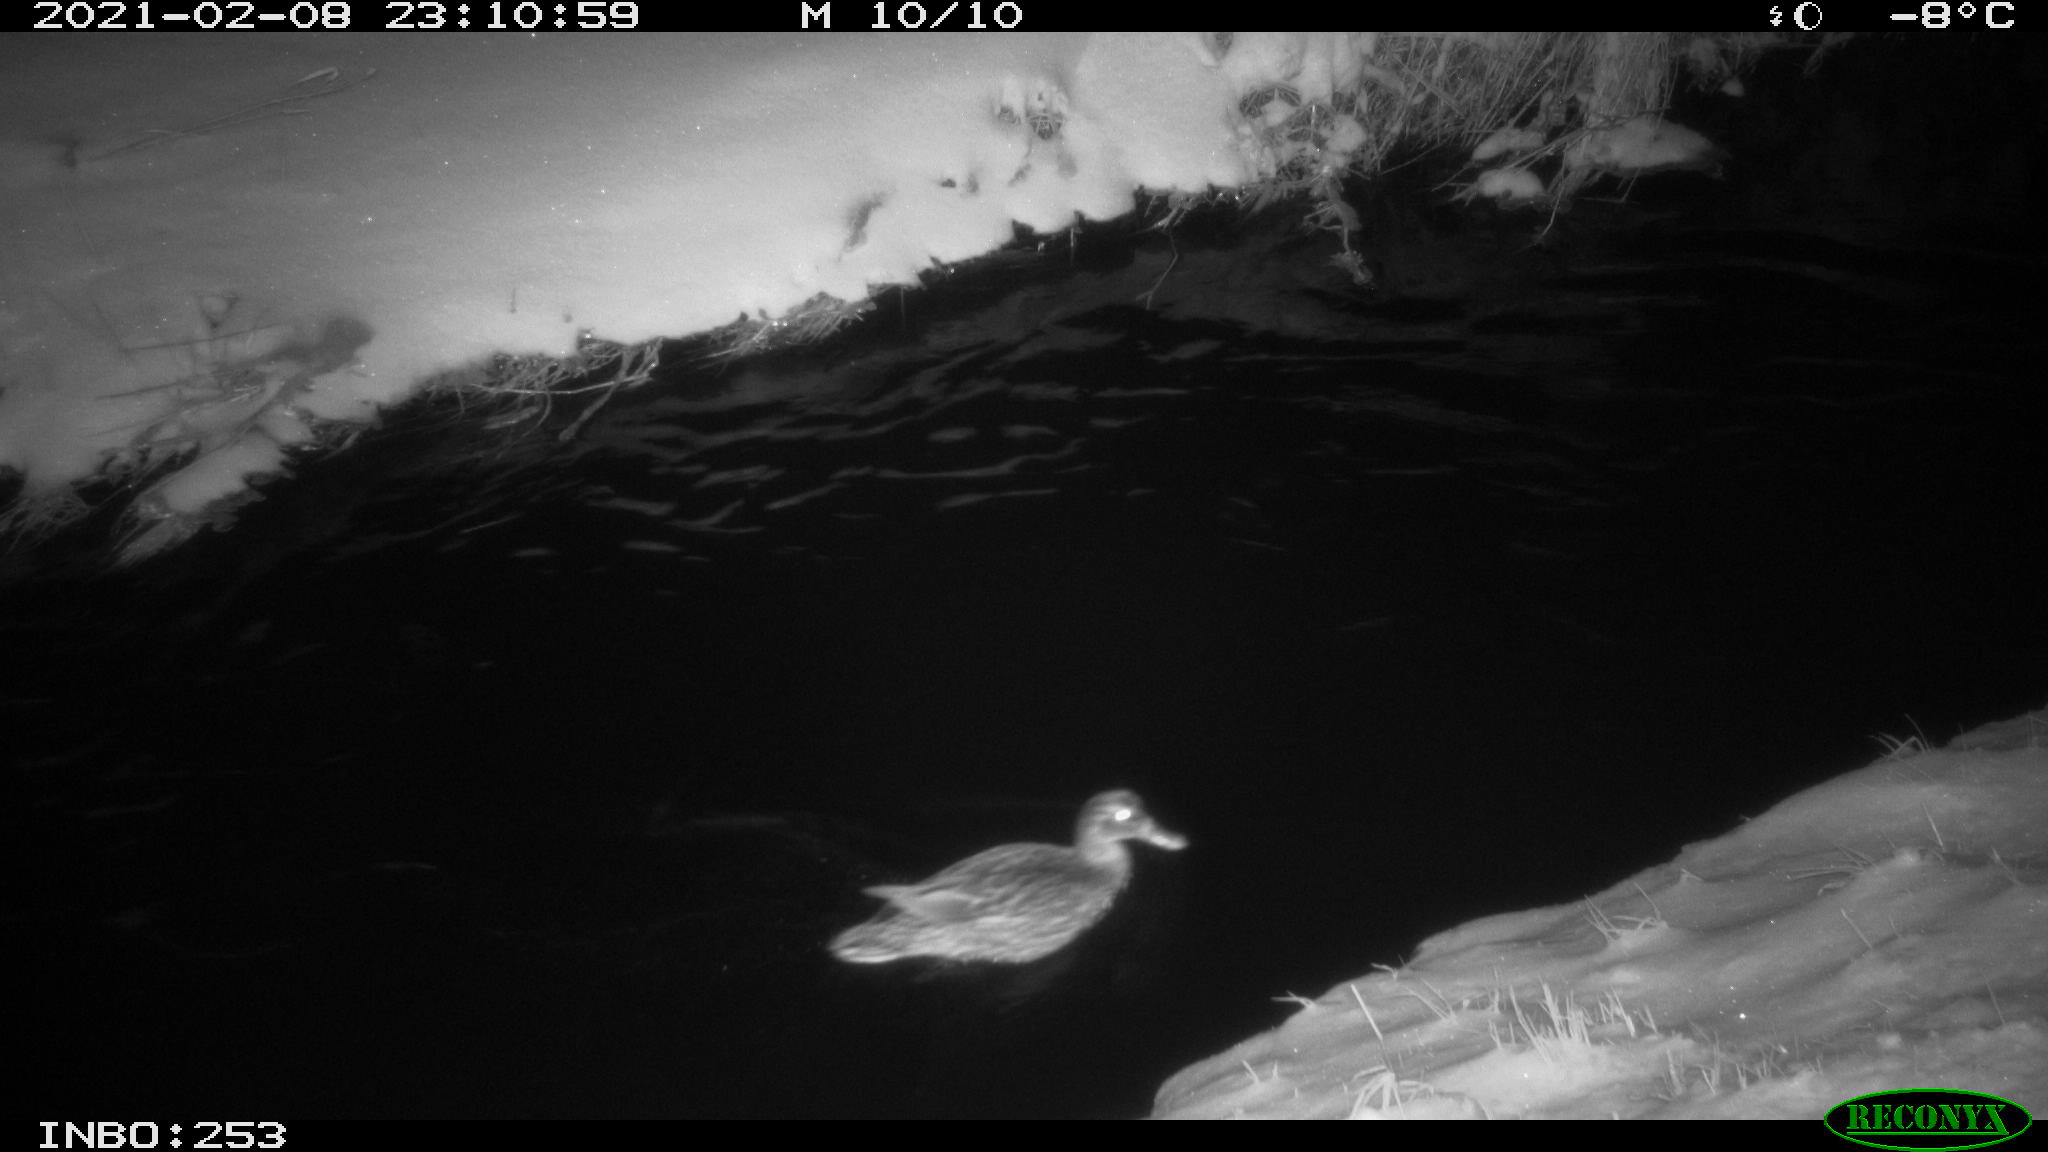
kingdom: Animalia
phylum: Chordata
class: Aves
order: Anseriformes
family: Anatidae
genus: Anas
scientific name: Anas platyrhynchos
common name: Mallard
